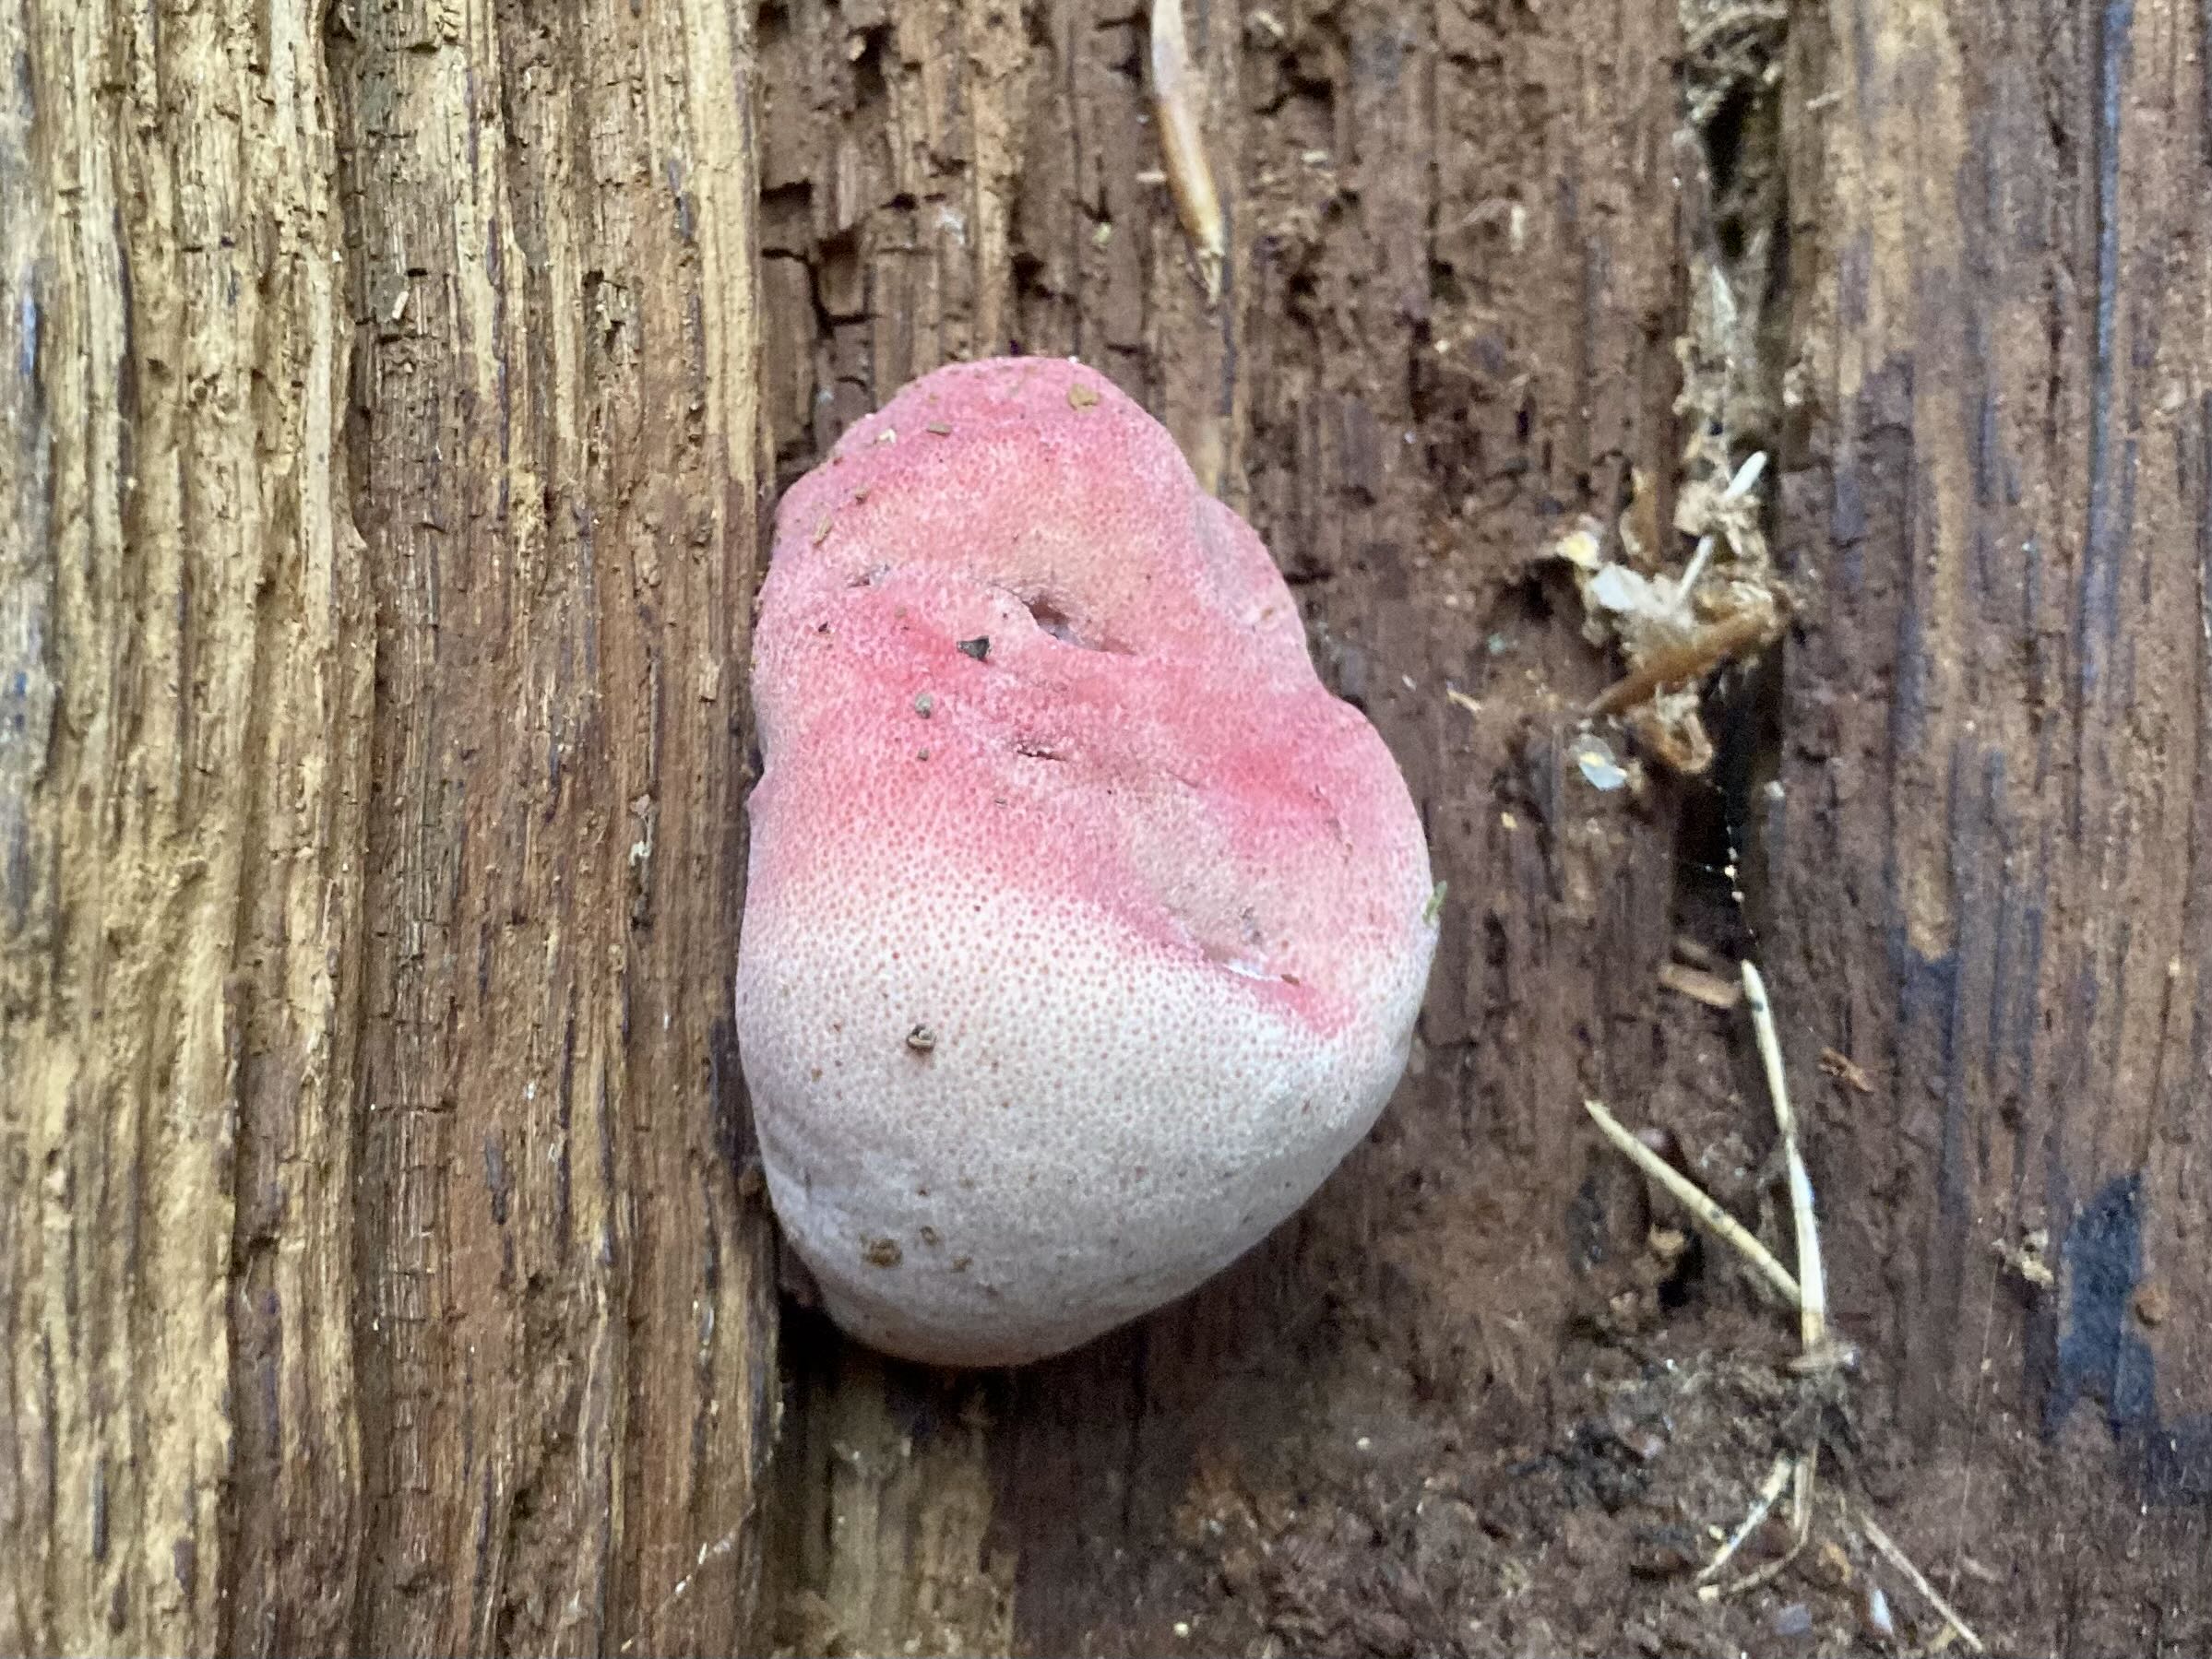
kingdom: Fungi
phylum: Basidiomycota
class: Agaricomycetes
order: Agaricales
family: Fistulinaceae
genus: Fistulina
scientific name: Fistulina hepatica
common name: oksetunge
